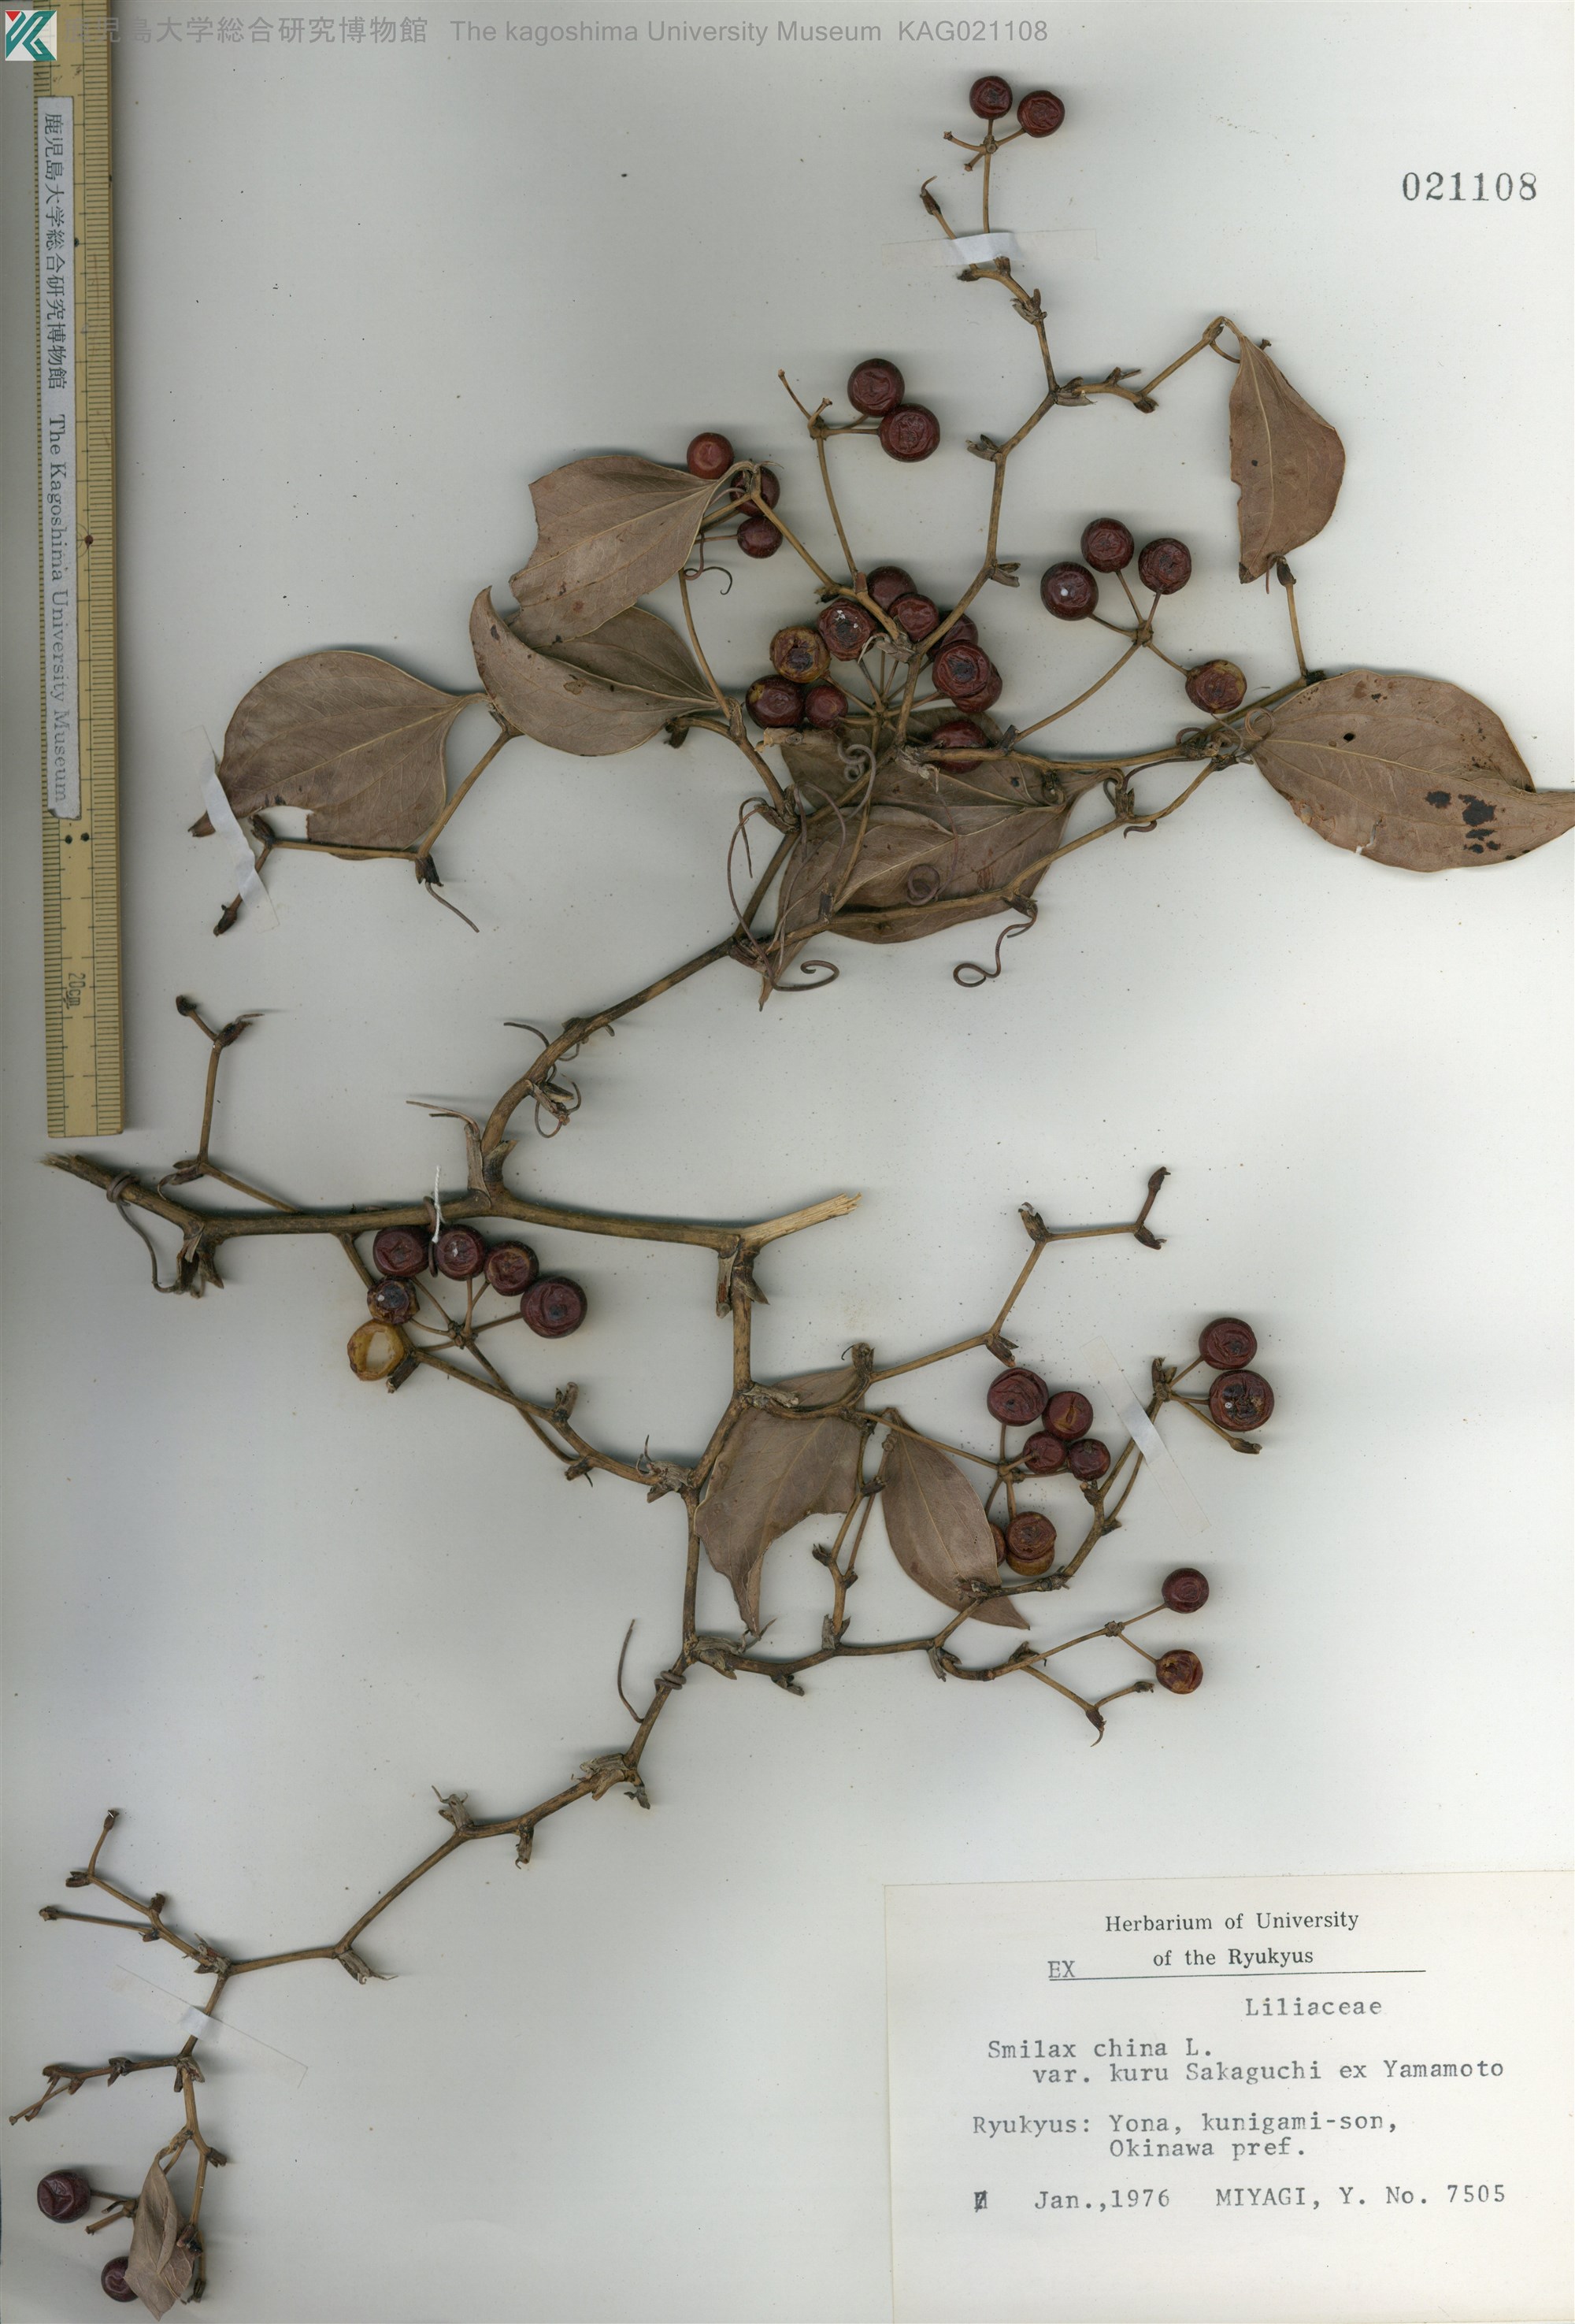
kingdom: Plantae
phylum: Tracheophyta
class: Liliopsida
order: Liliales
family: Smilacaceae
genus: Smilax
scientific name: Smilax china
